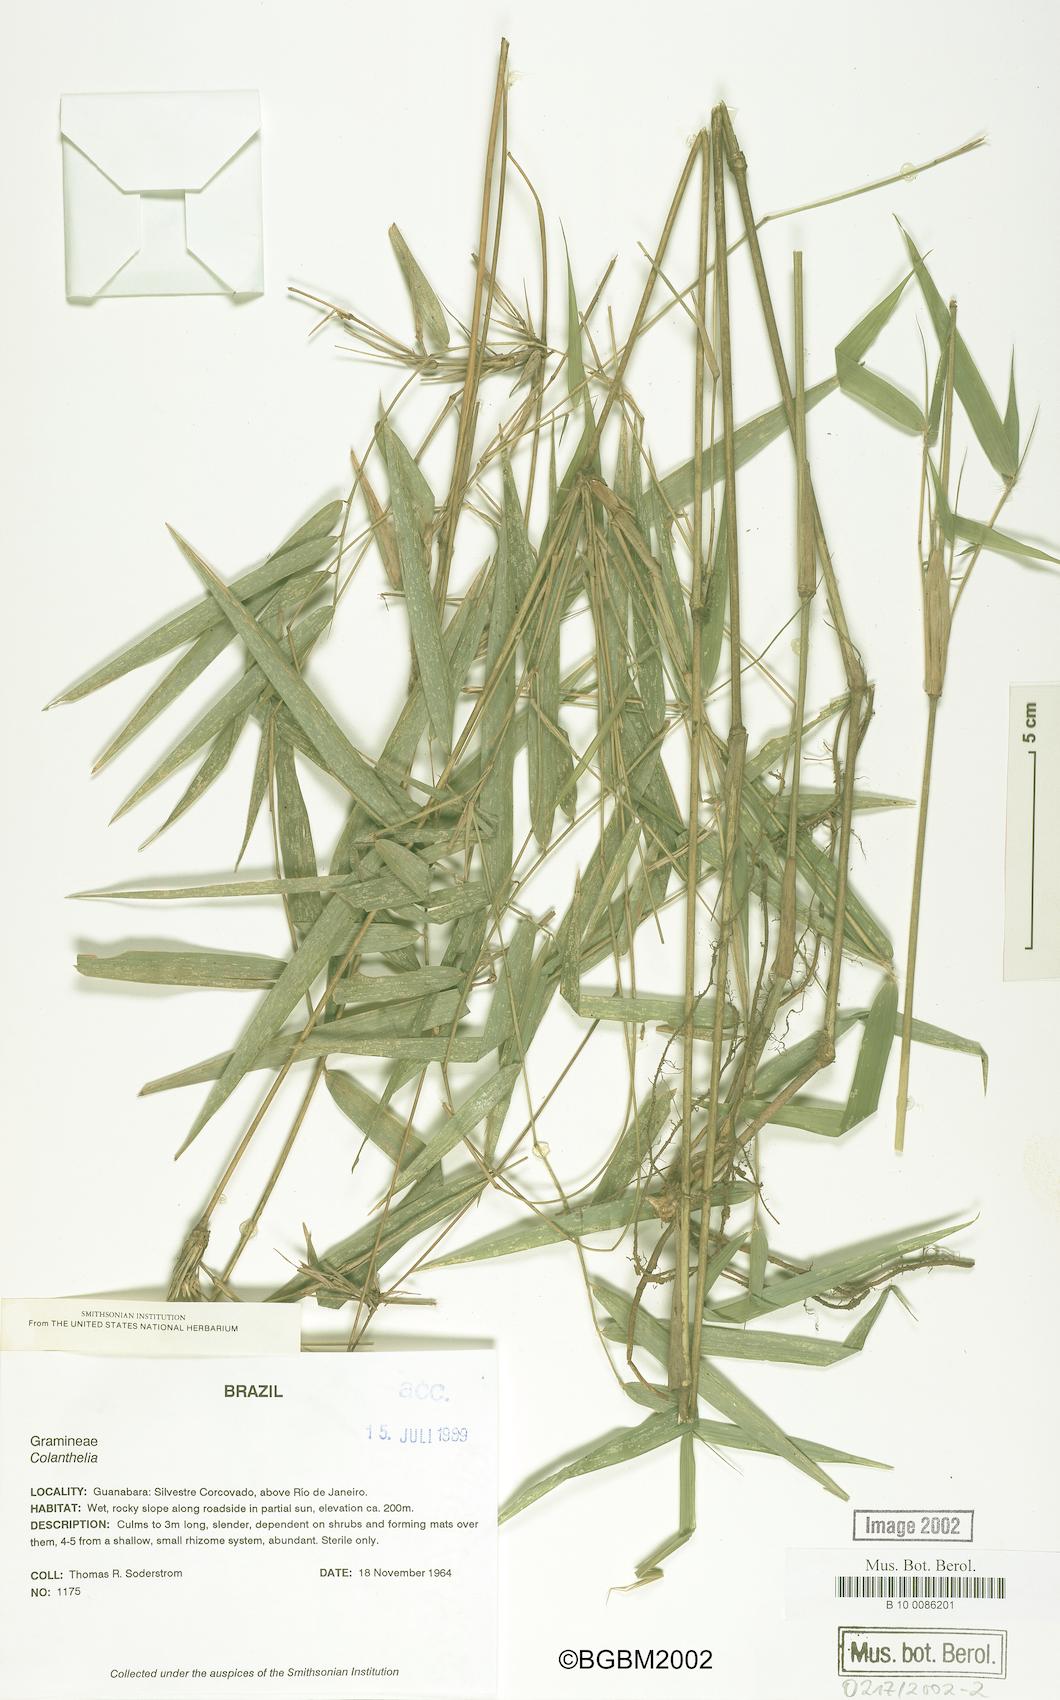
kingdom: Plantae
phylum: Tracheophyta
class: Liliopsida
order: Poales
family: Poaceae
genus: Colanthelia
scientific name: Colanthelia
